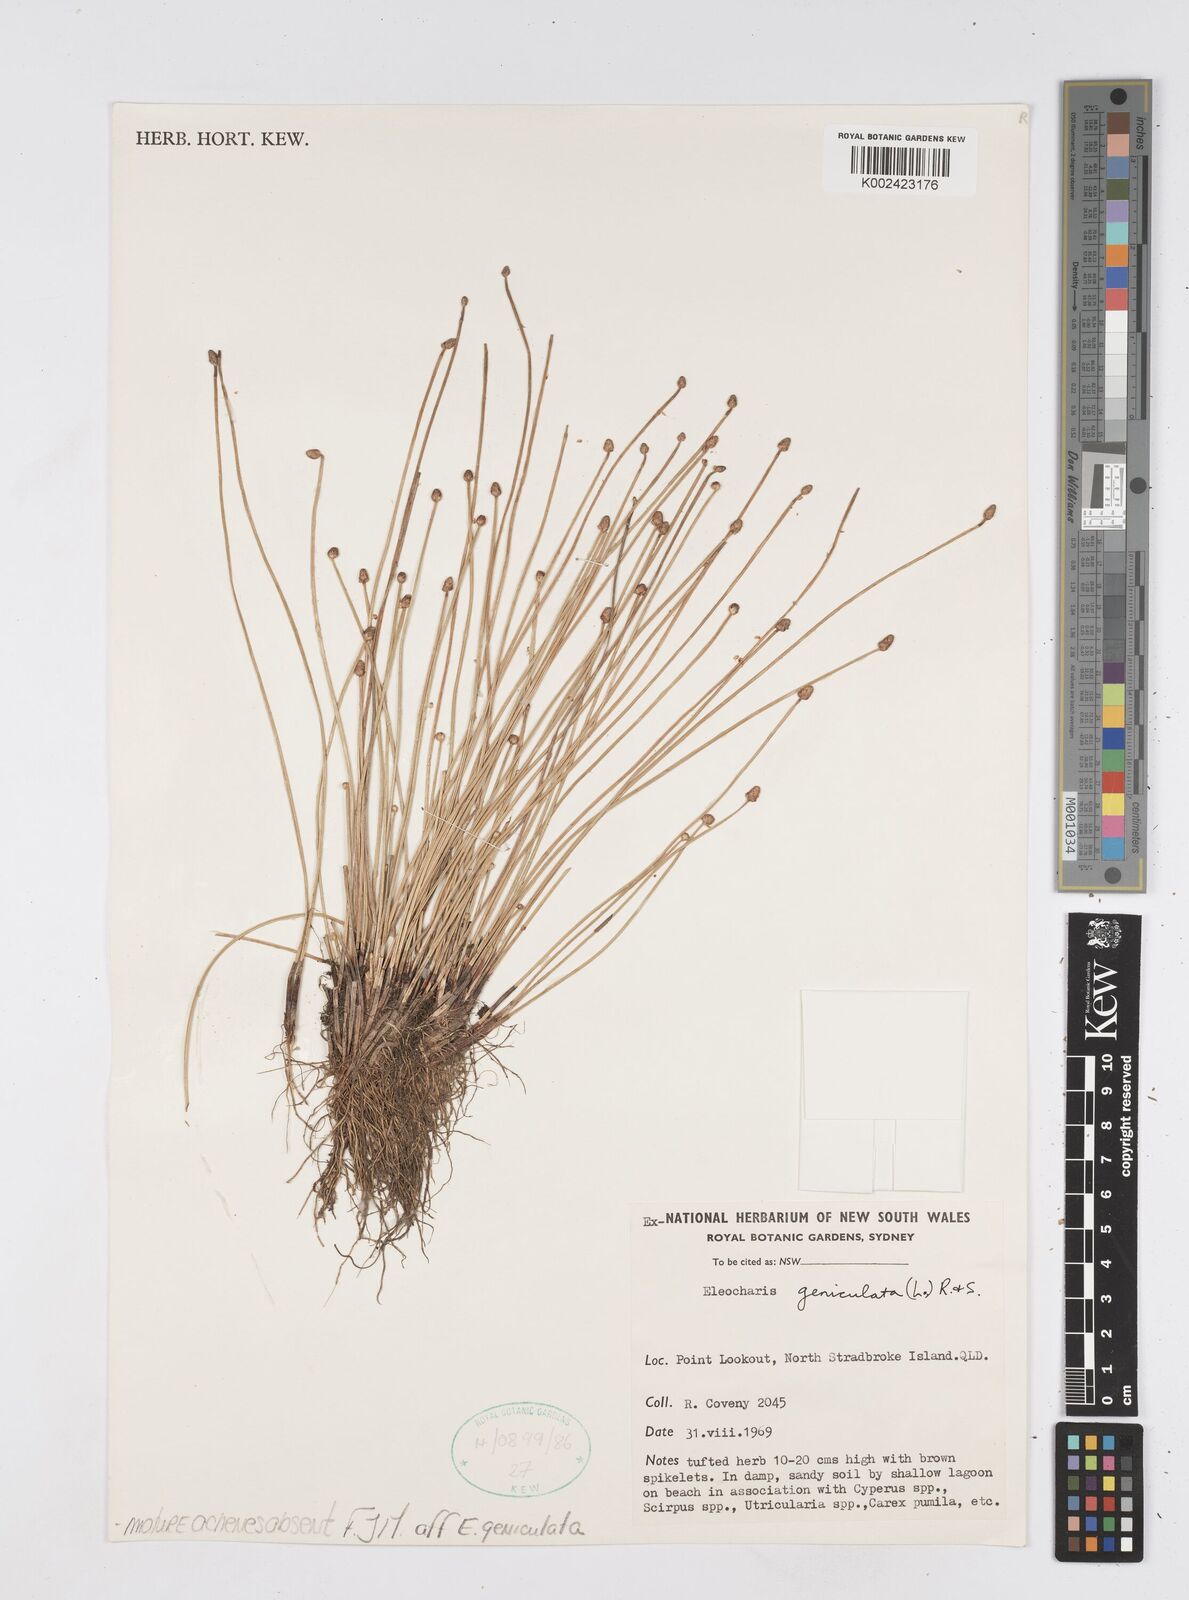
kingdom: Plantae
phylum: Tracheophyta
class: Liliopsida
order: Poales
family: Cyperaceae
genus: Eleocharis
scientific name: Eleocharis geniculata
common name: Canada spikesedge
